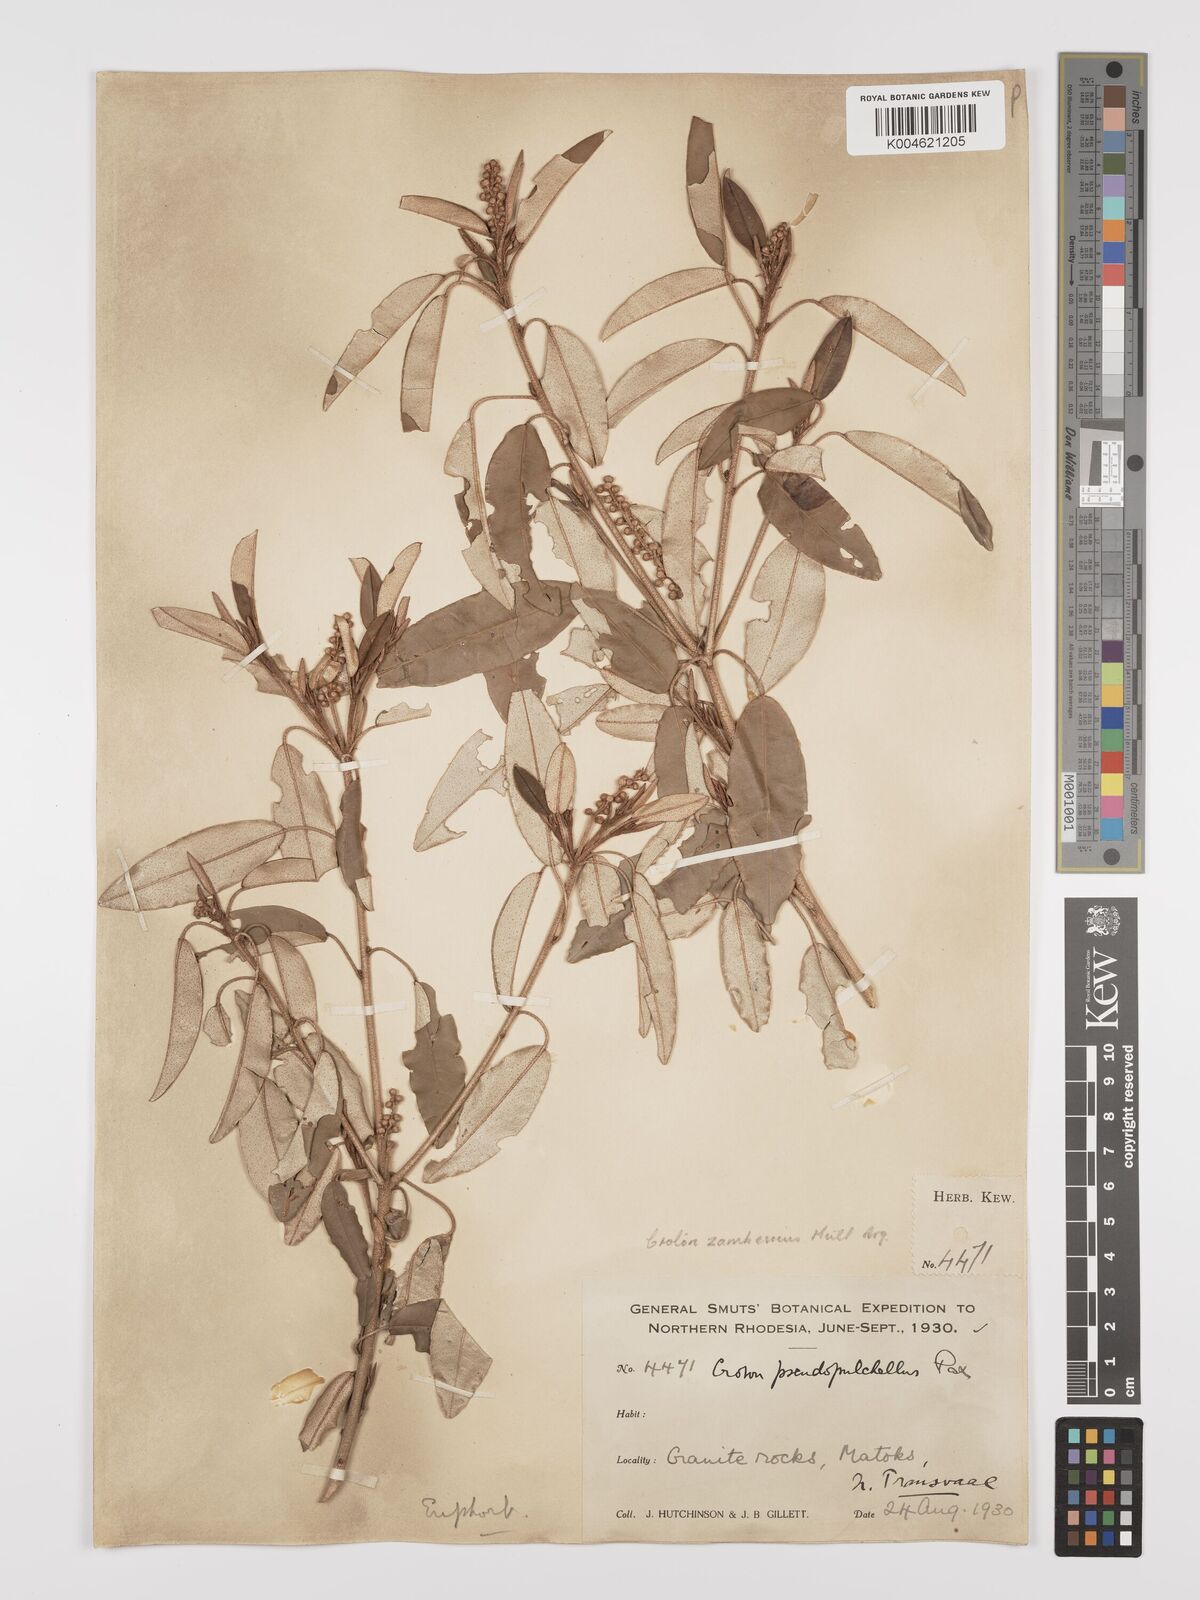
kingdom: Plantae
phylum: Tracheophyta
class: Magnoliopsida
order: Malpighiales
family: Euphorbiaceae
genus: Croton
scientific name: Croton gratissimus
